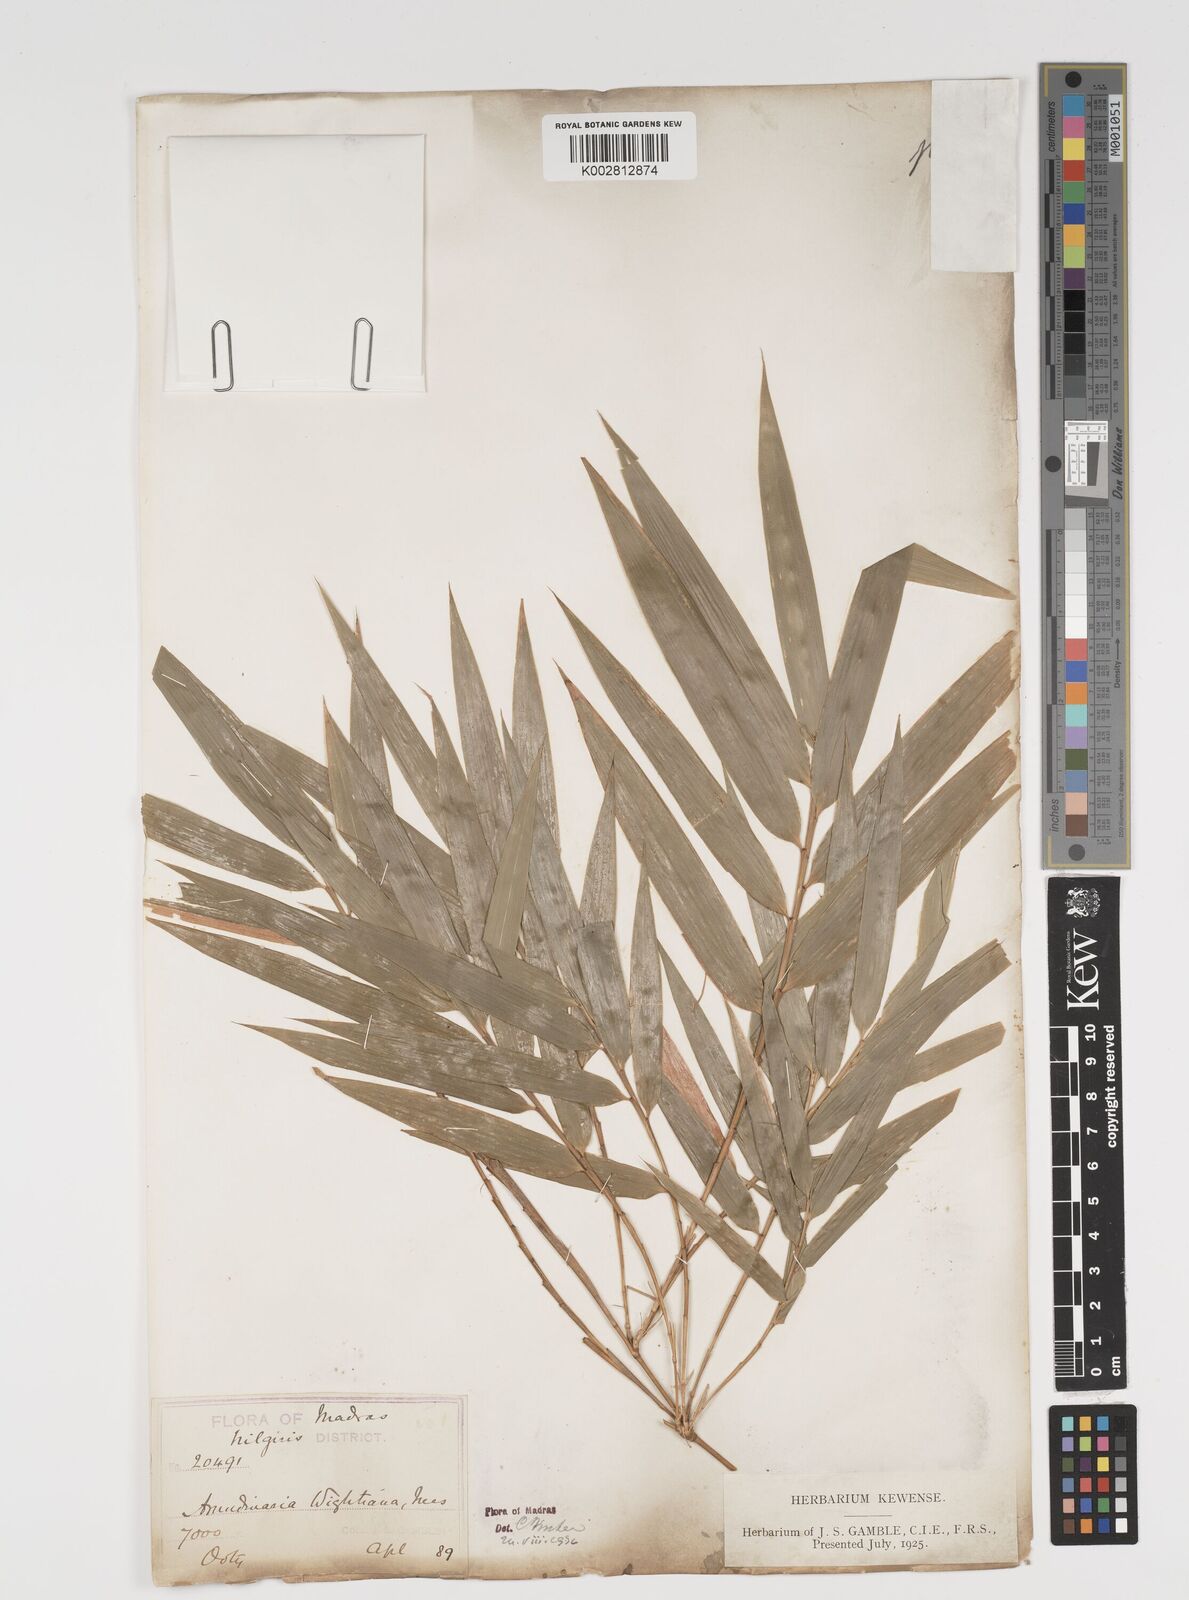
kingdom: Plantae
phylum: Tracheophyta
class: Liliopsida
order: Poales
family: Poaceae
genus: Kuruna
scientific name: Kuruna wightiana
